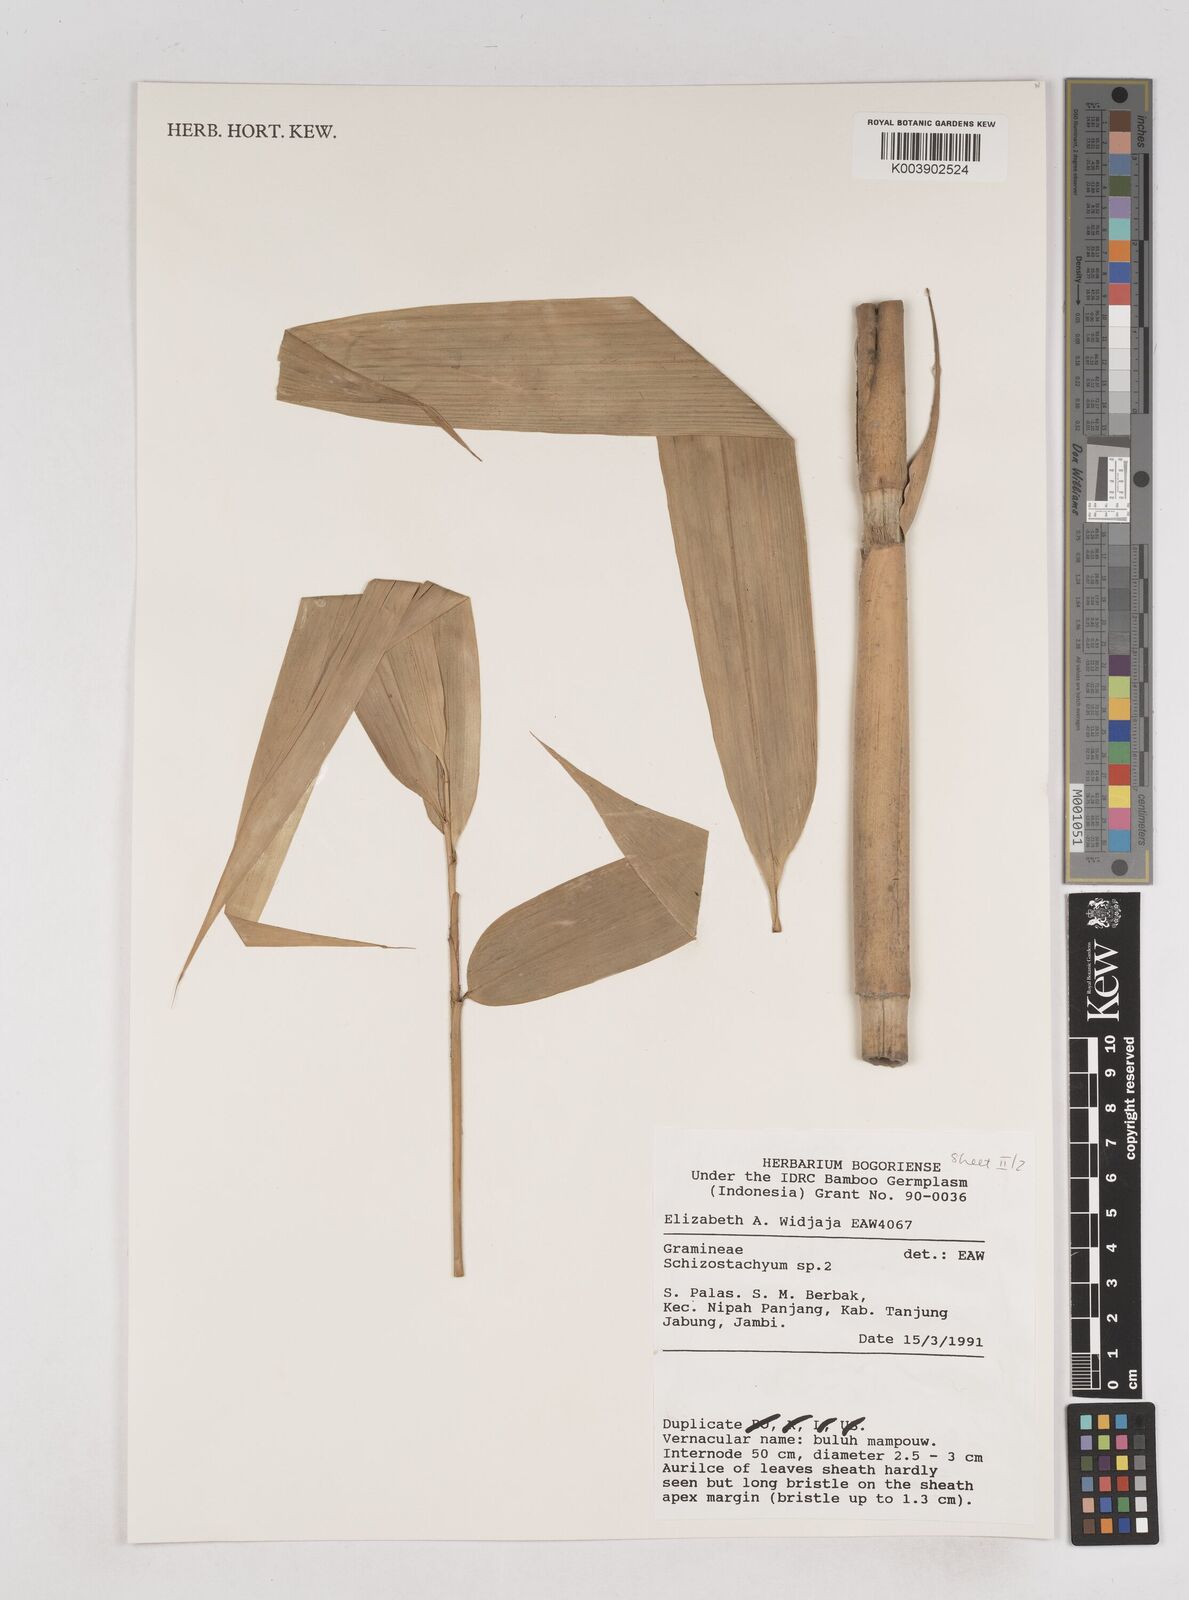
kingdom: Plantae
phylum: Tracheophyta
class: Liliopsida
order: Poales
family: Poaceae
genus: Schizostachyum
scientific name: Schizostachyum
